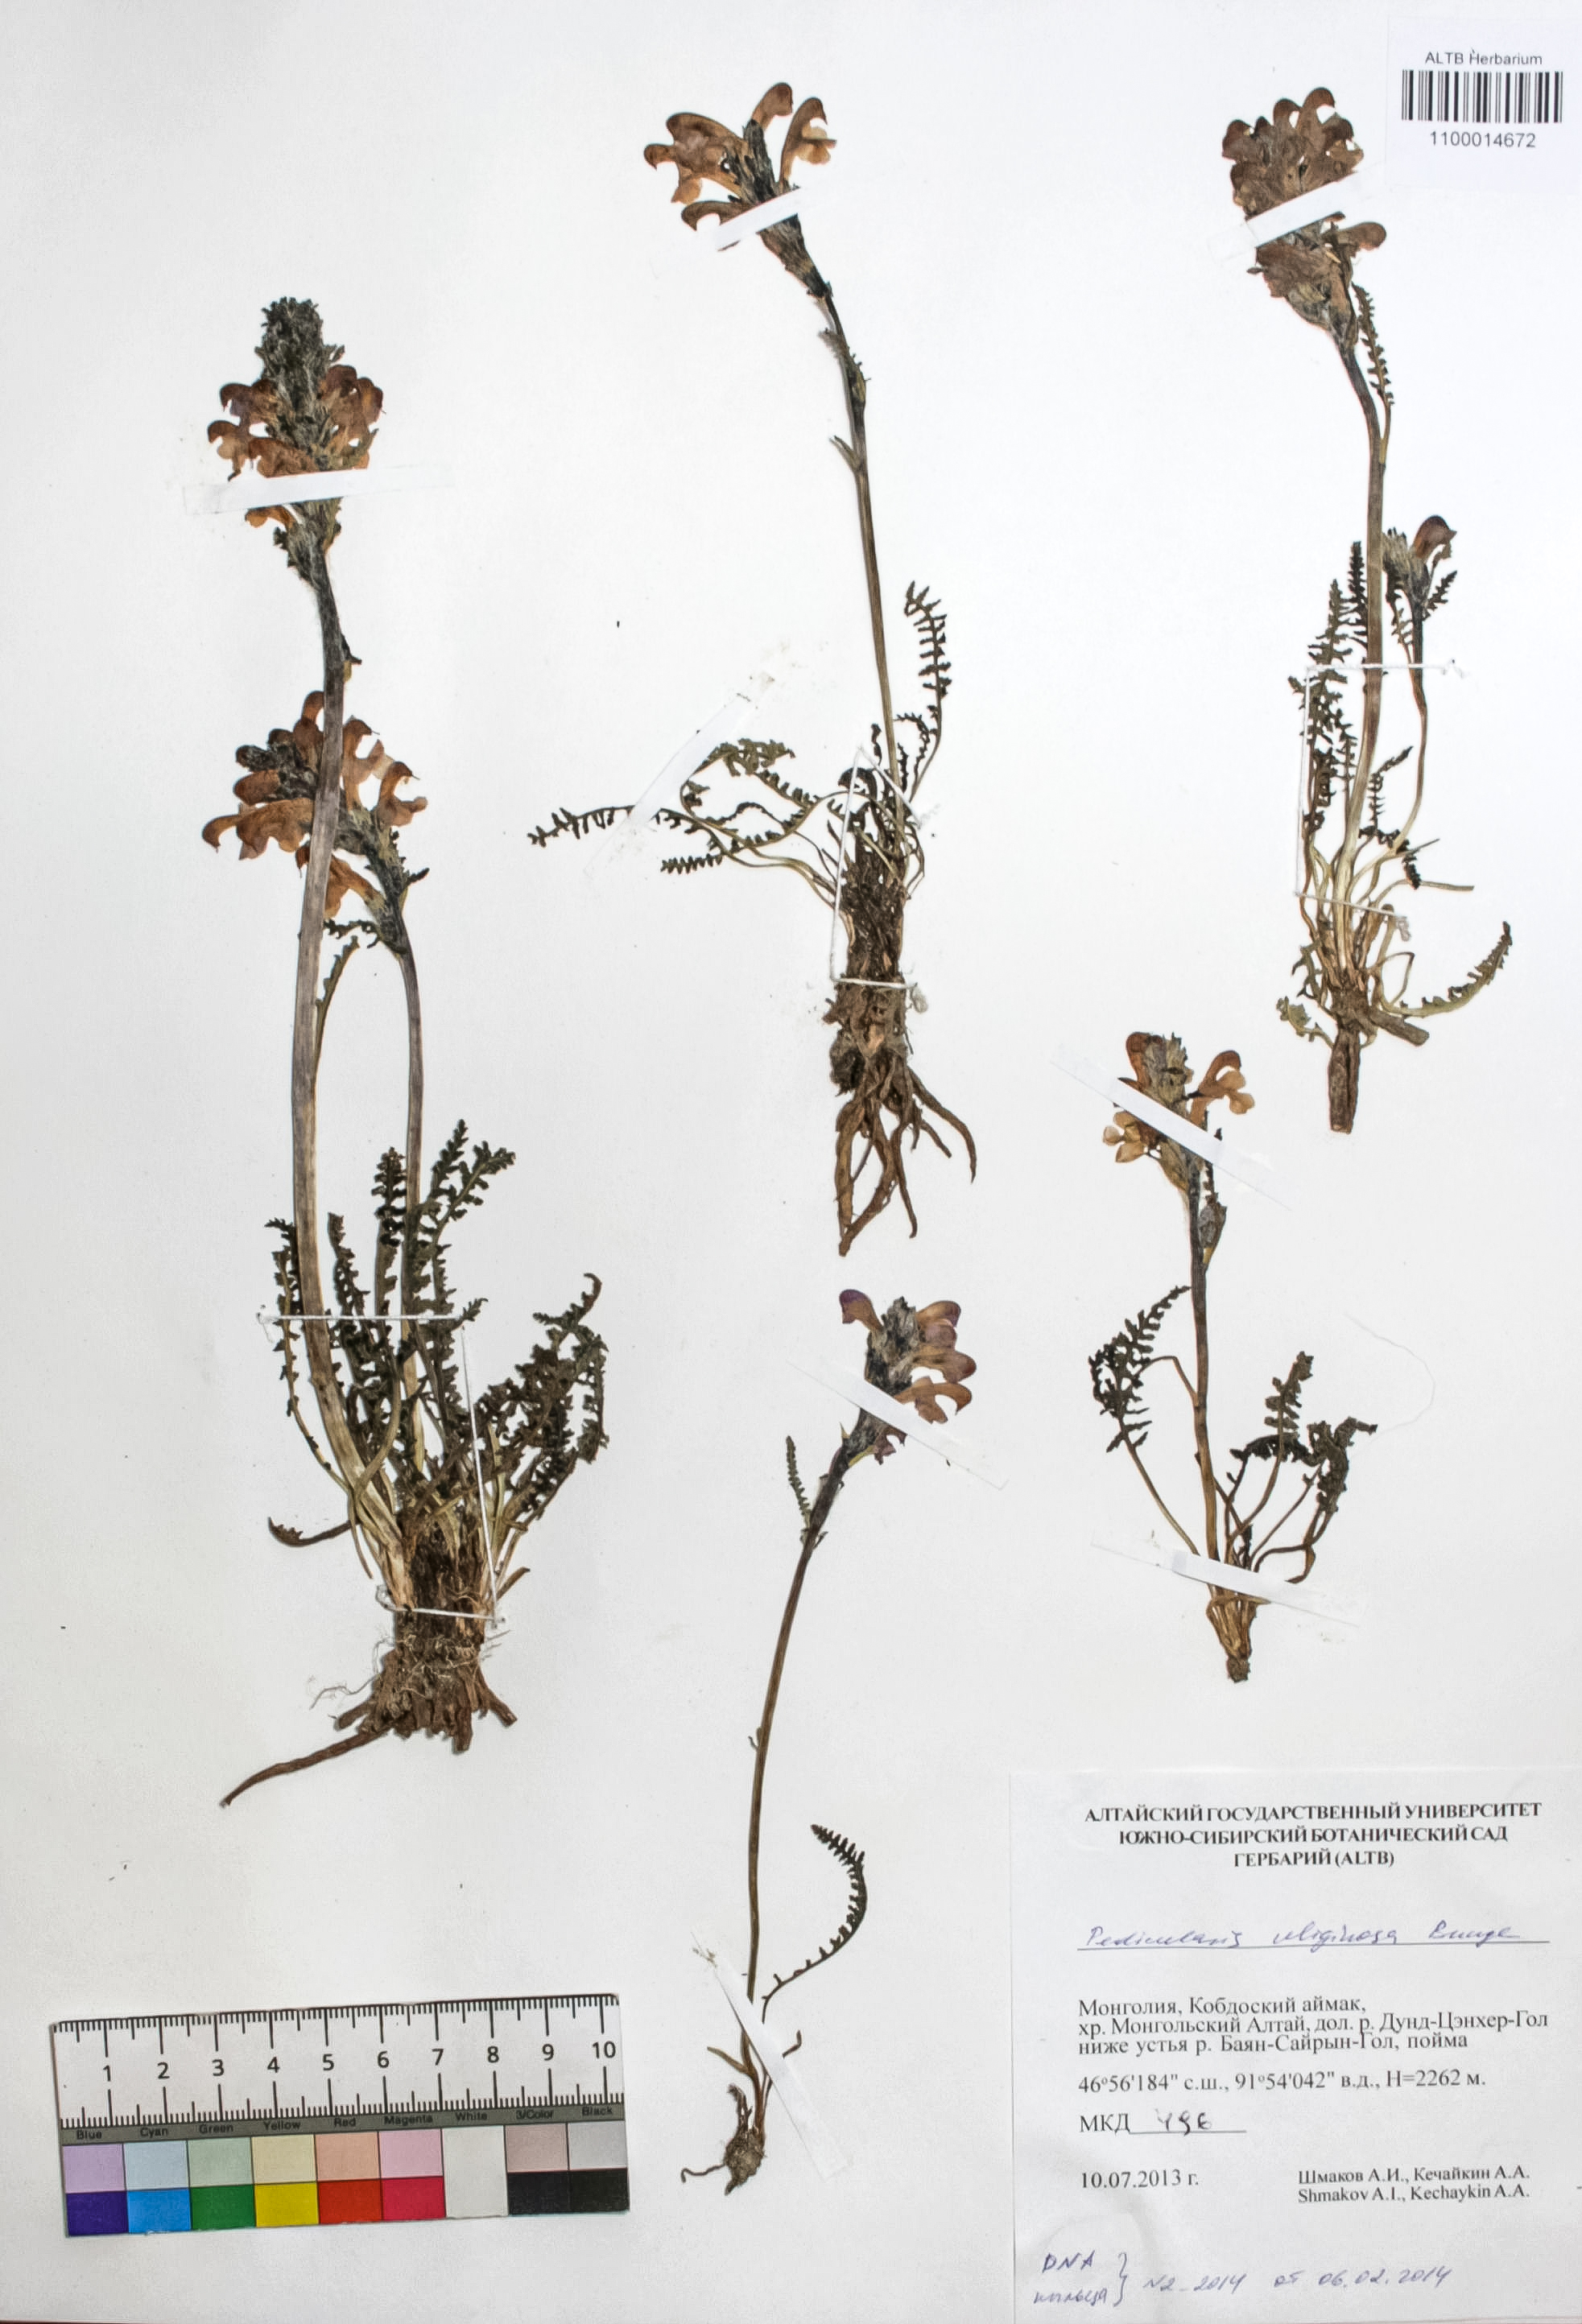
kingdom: Plantae
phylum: Tracheophyta
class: Magnoliopsida
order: Lamiales
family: Orobanchaceae
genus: Pedicularis
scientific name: Pedicularis uliginosa
